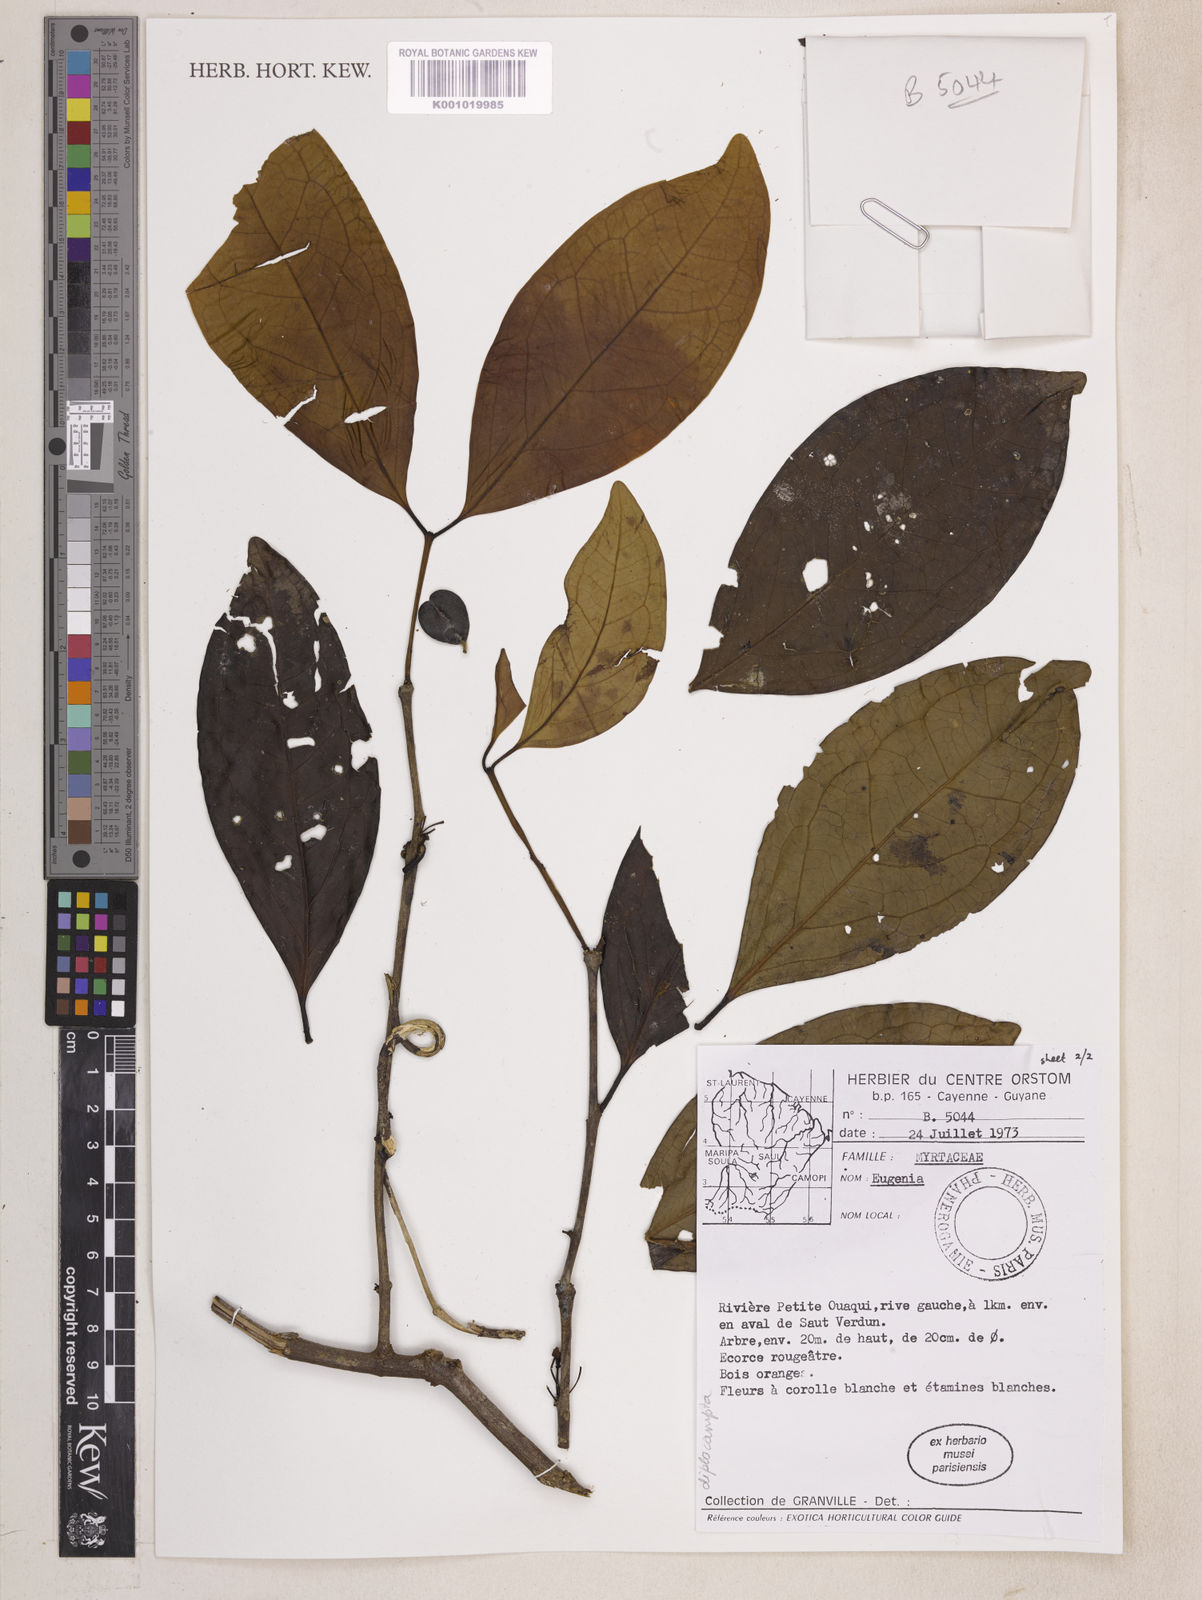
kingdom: Plantae
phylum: Tracheophyta
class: Magnoliopsida
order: Myrtales
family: Myrtaceae
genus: Eugenia
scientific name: Eugenia anastomosans
